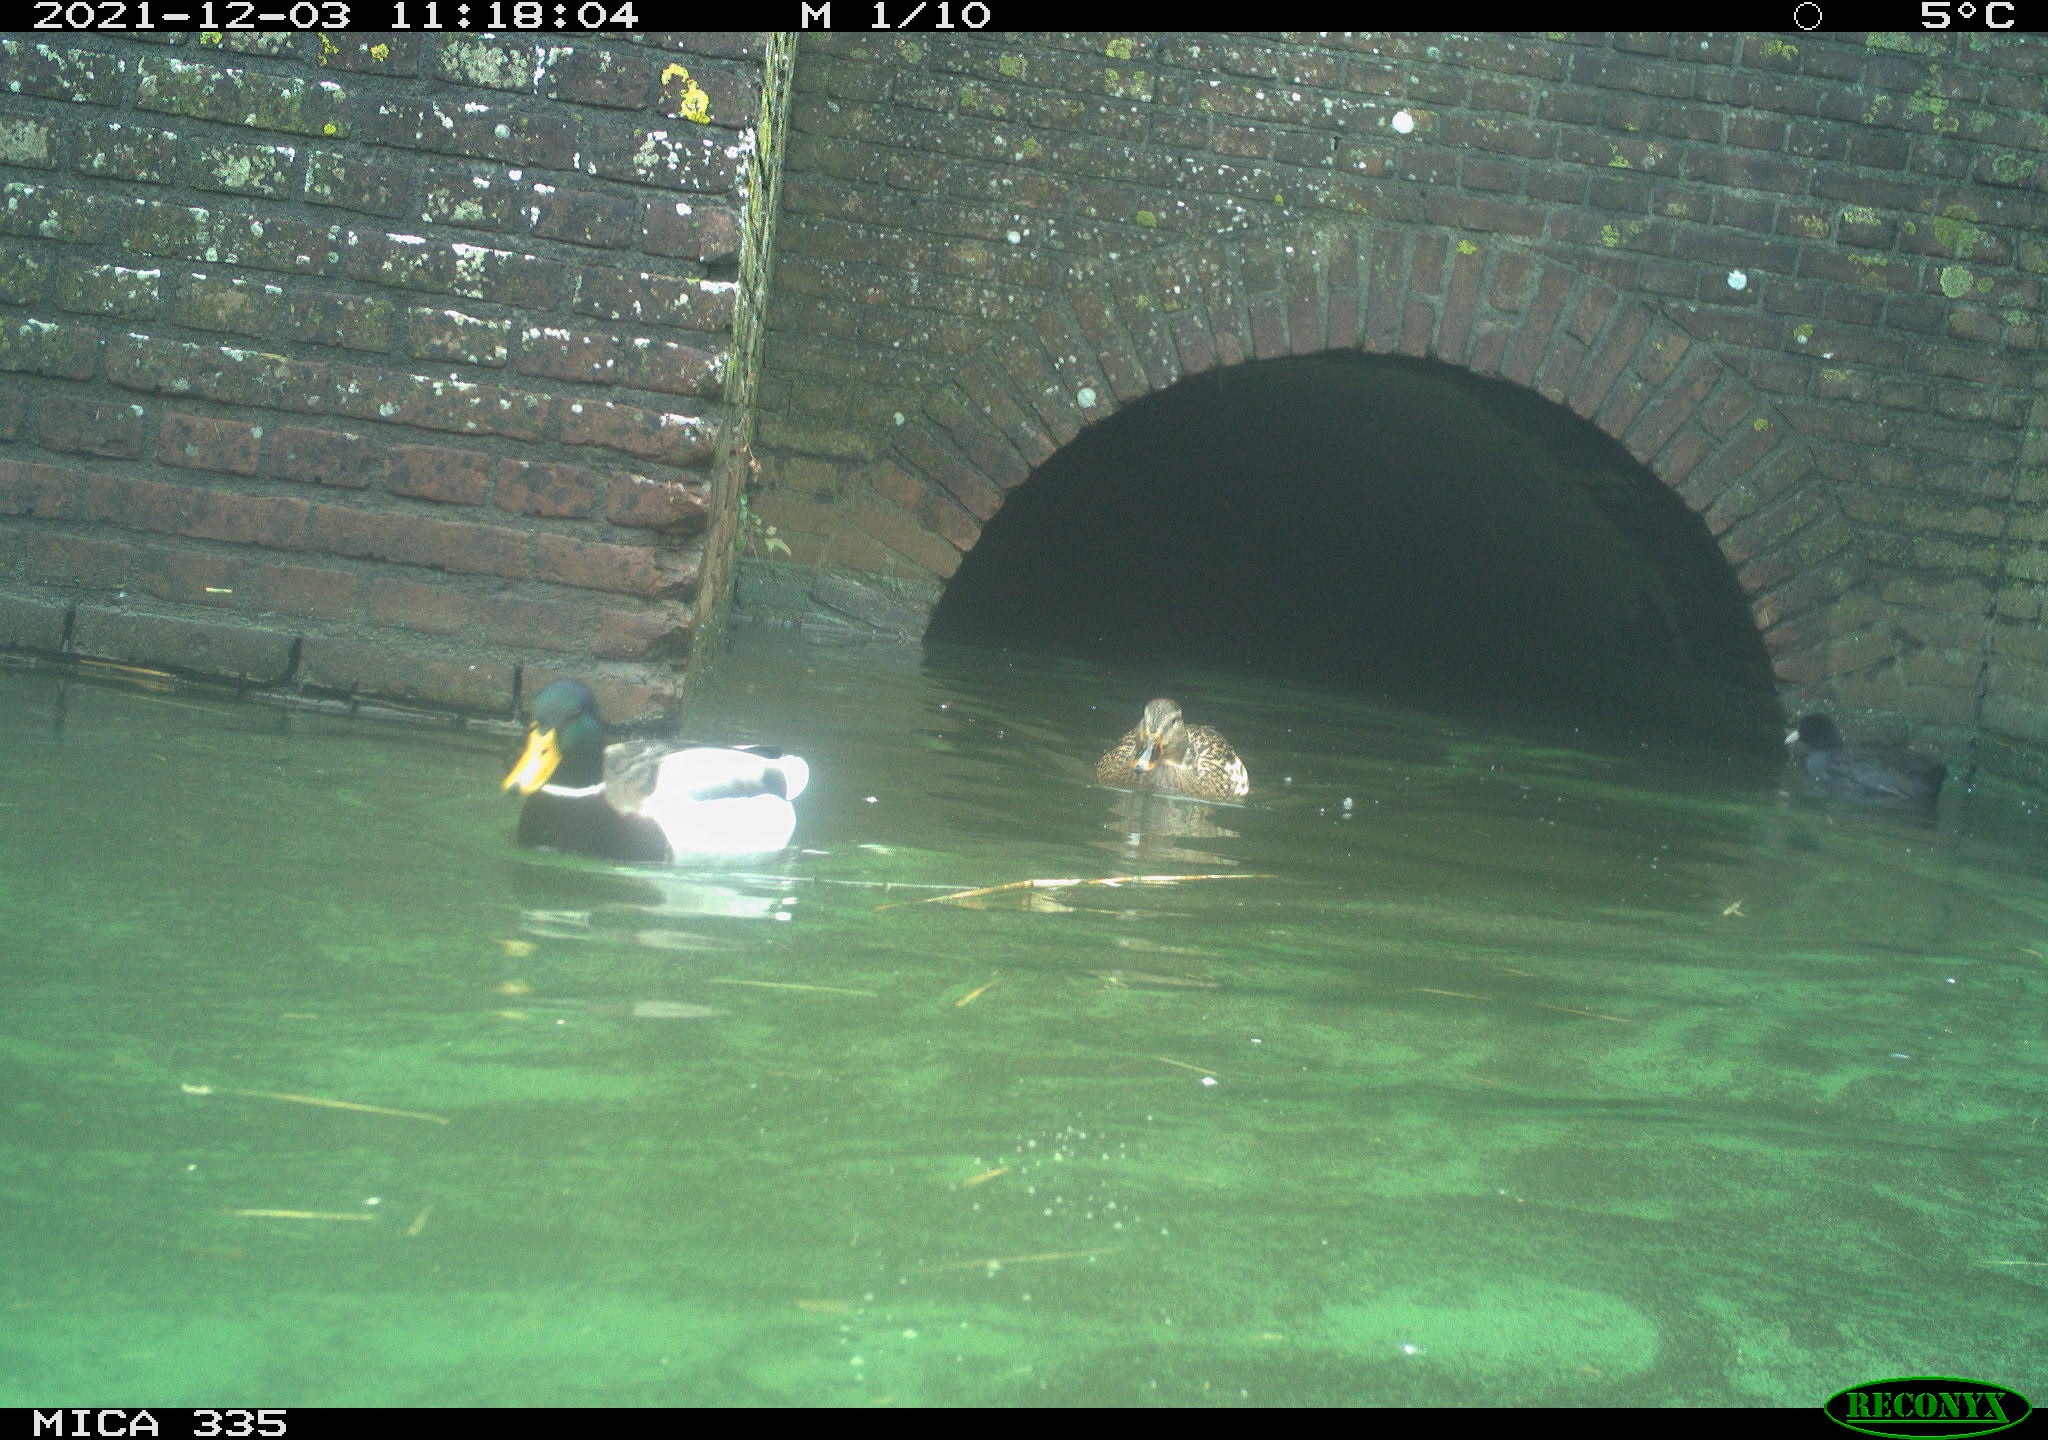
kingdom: Animalia
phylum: Chordata
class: Aves
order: Anseriformes
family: Anatidae
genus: Anas
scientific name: Anas platyrhynchos
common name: Mallard
